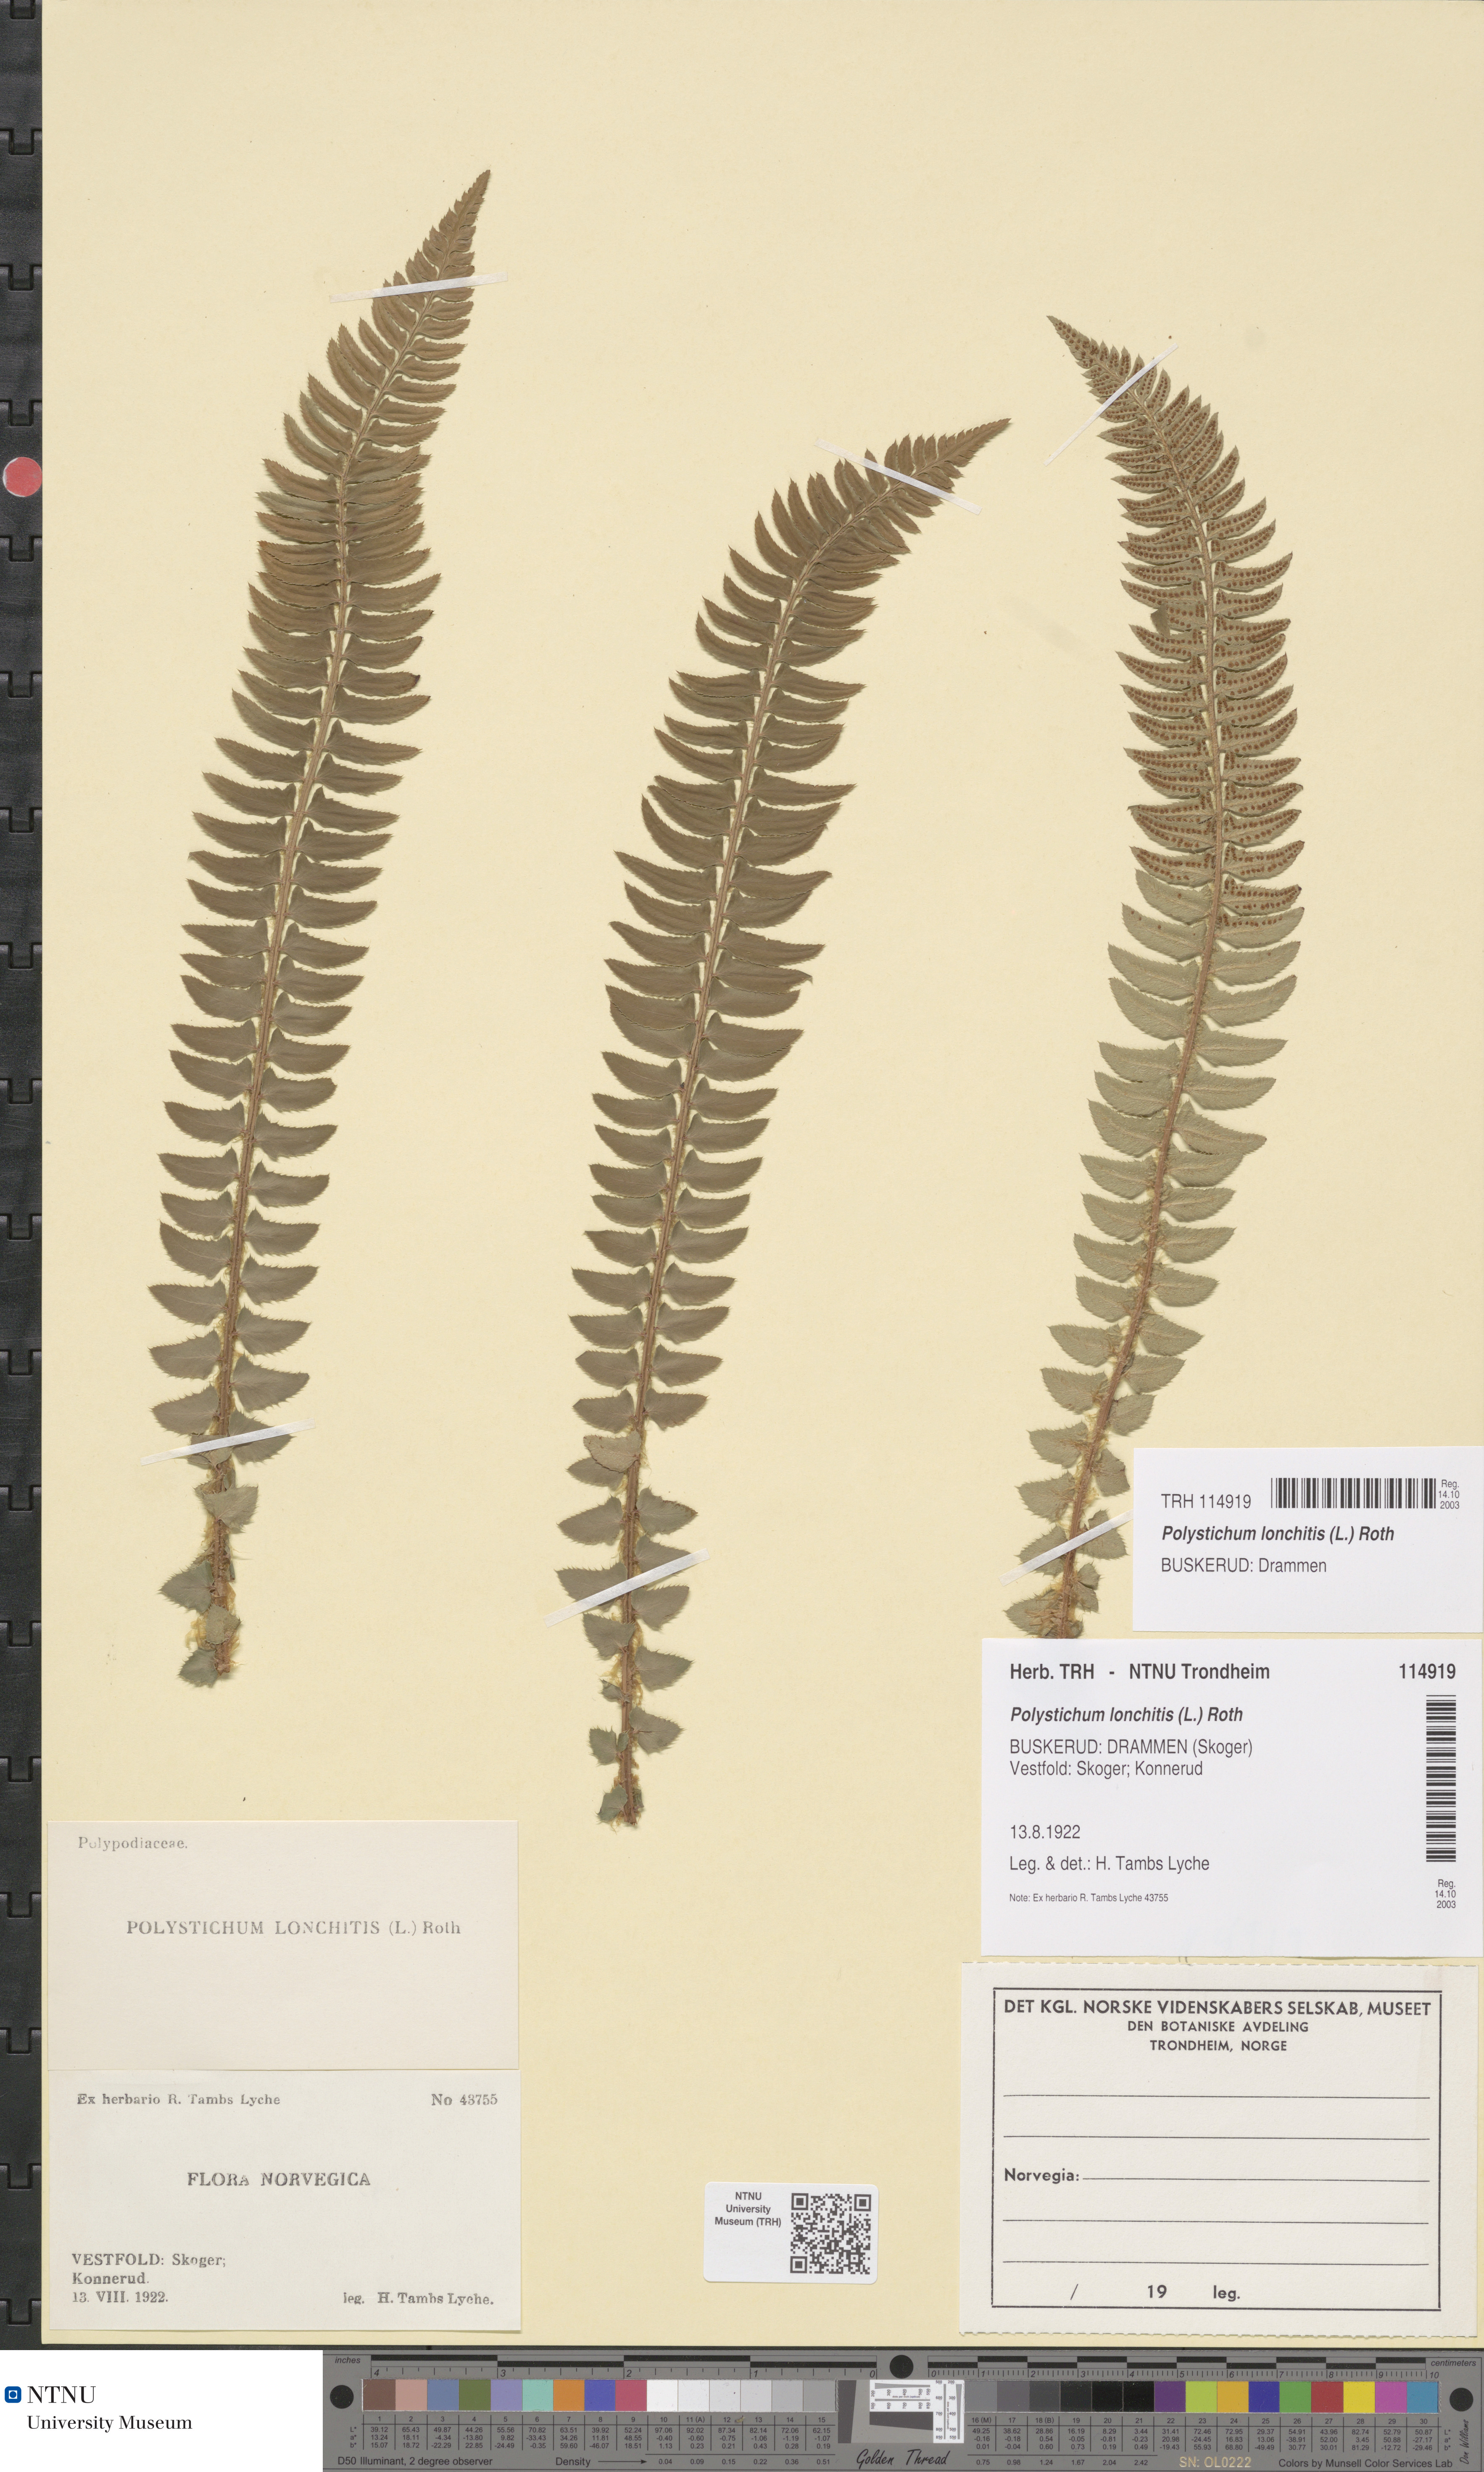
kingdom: Plantae
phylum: Tracheophyta
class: Polypodiopsida
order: Polypodiales
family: Dryopteridaceae
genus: Polystichum
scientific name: Polystichum lonchitis
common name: Holly fern
